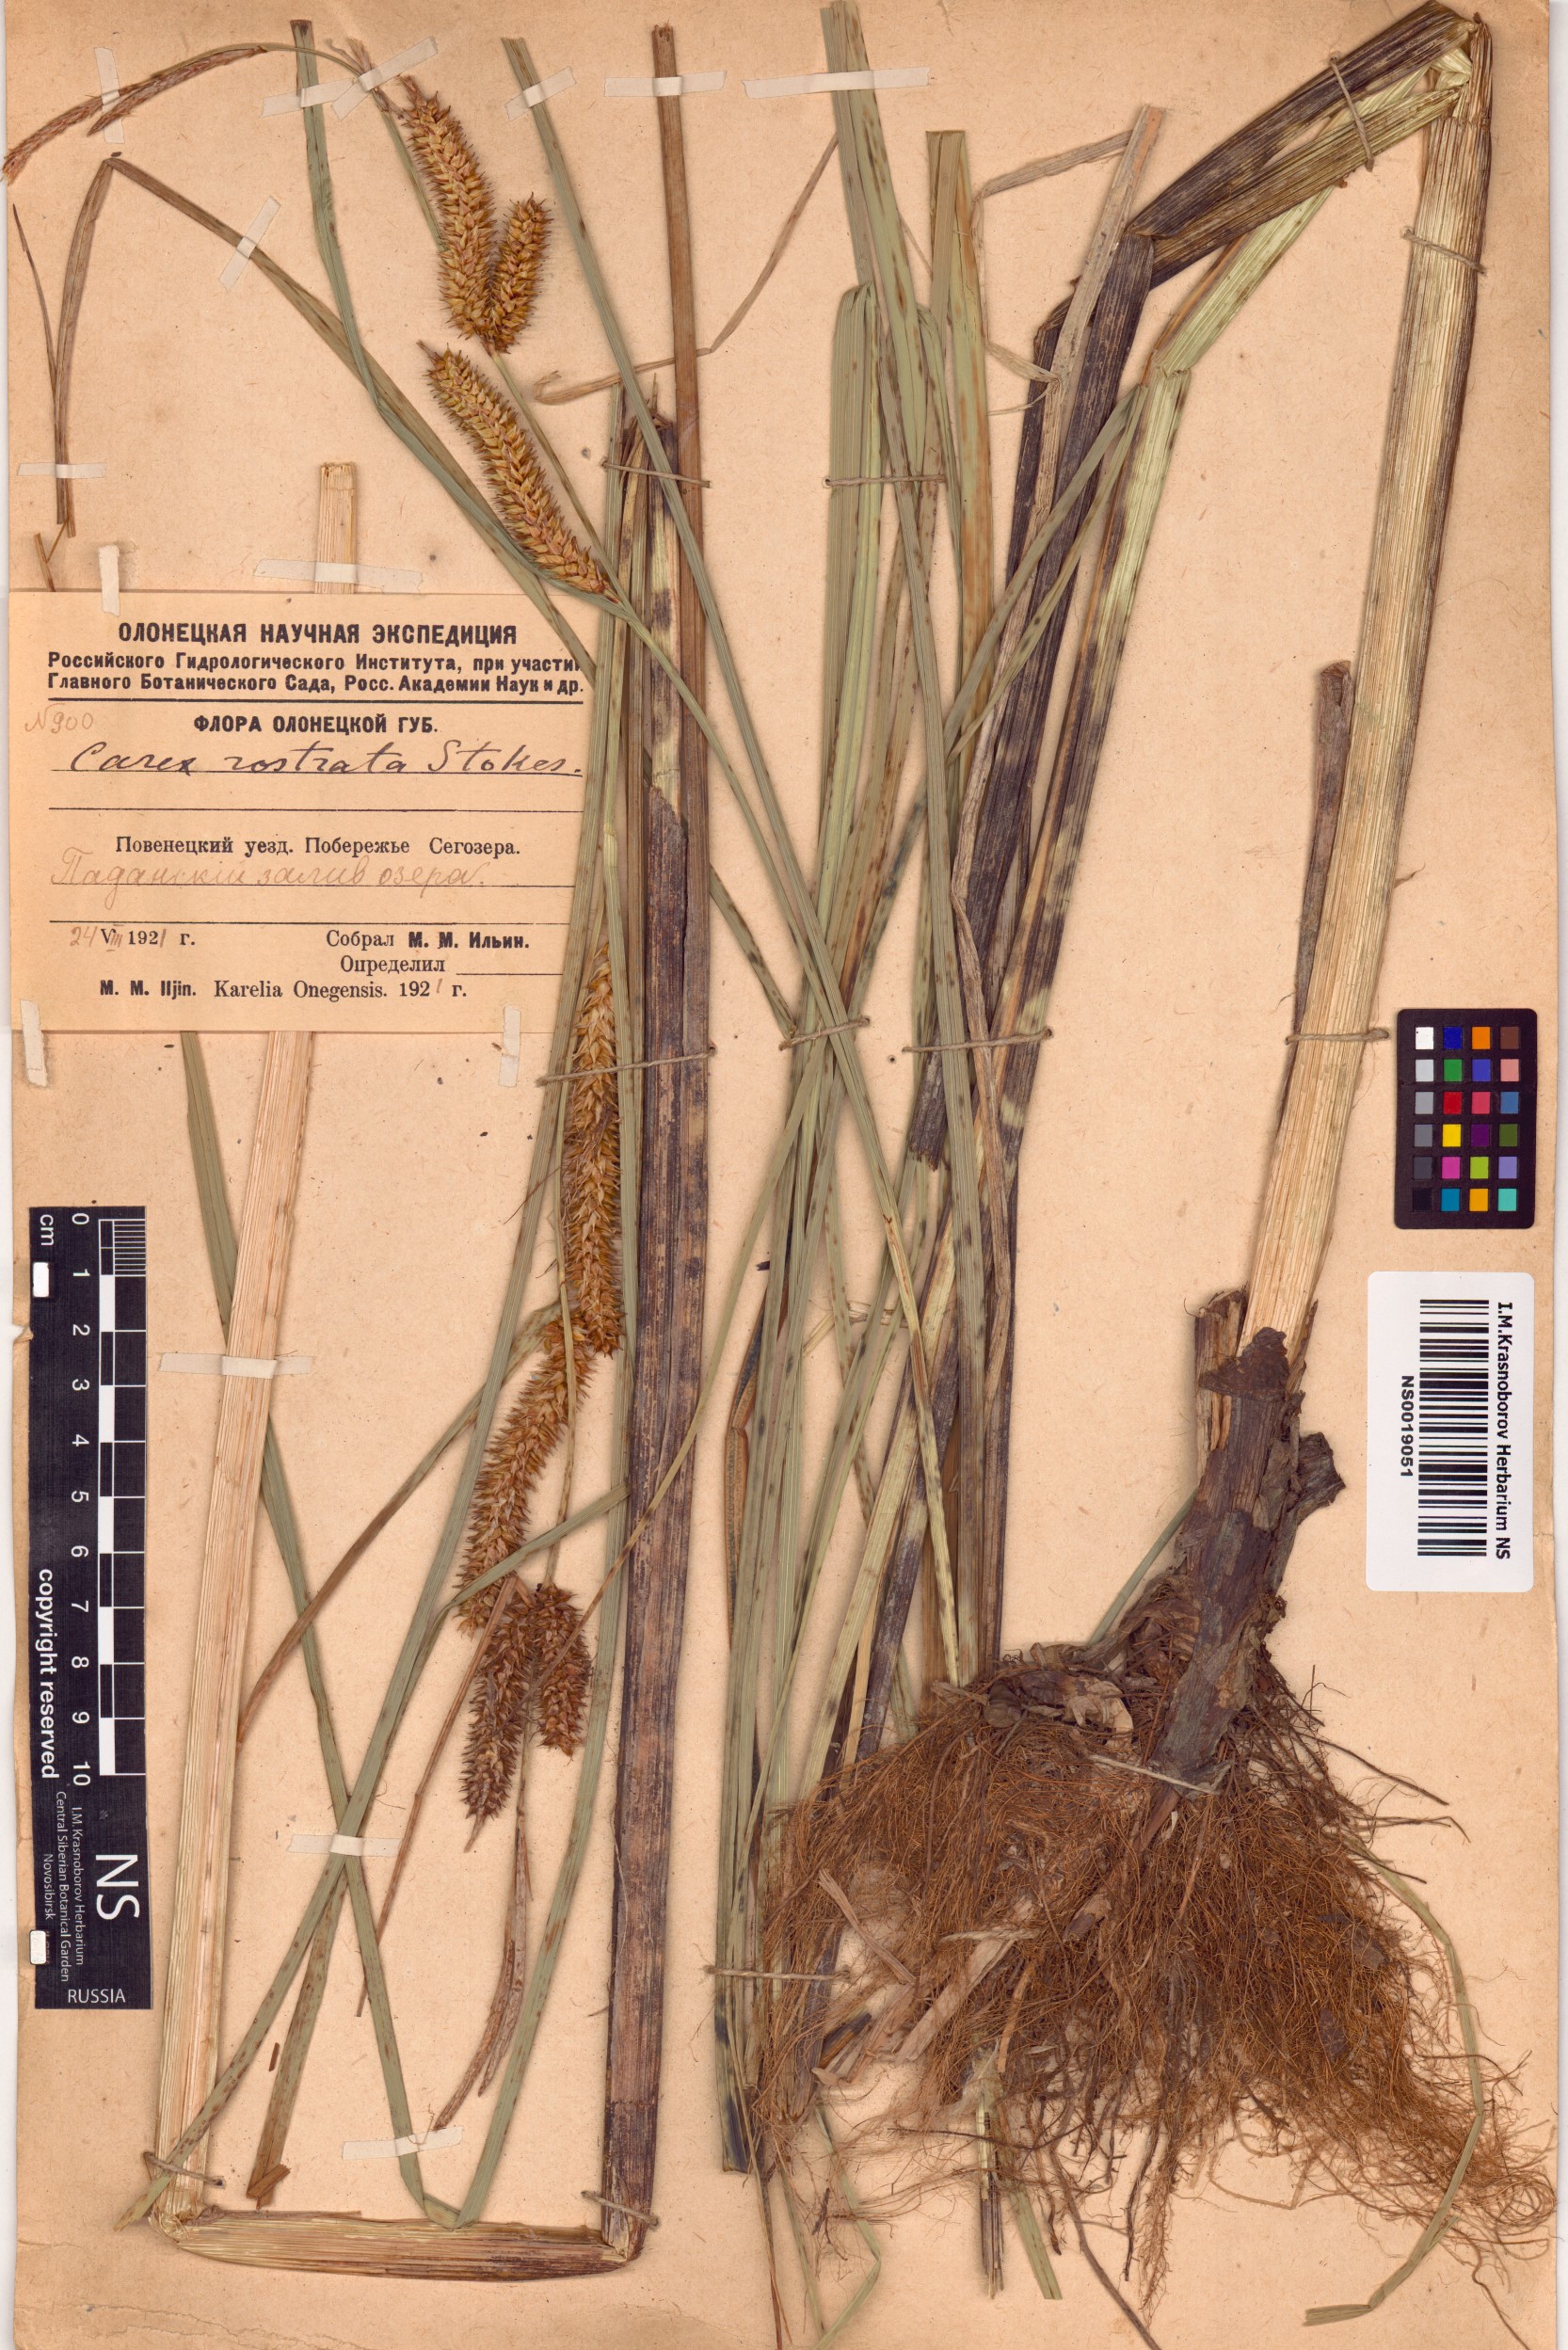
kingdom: Plantae
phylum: Tracheophyta
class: Liliopsida
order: Poales
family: Cyperaceae
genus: Carex
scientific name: Carex rostrata
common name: Bottle sedge
